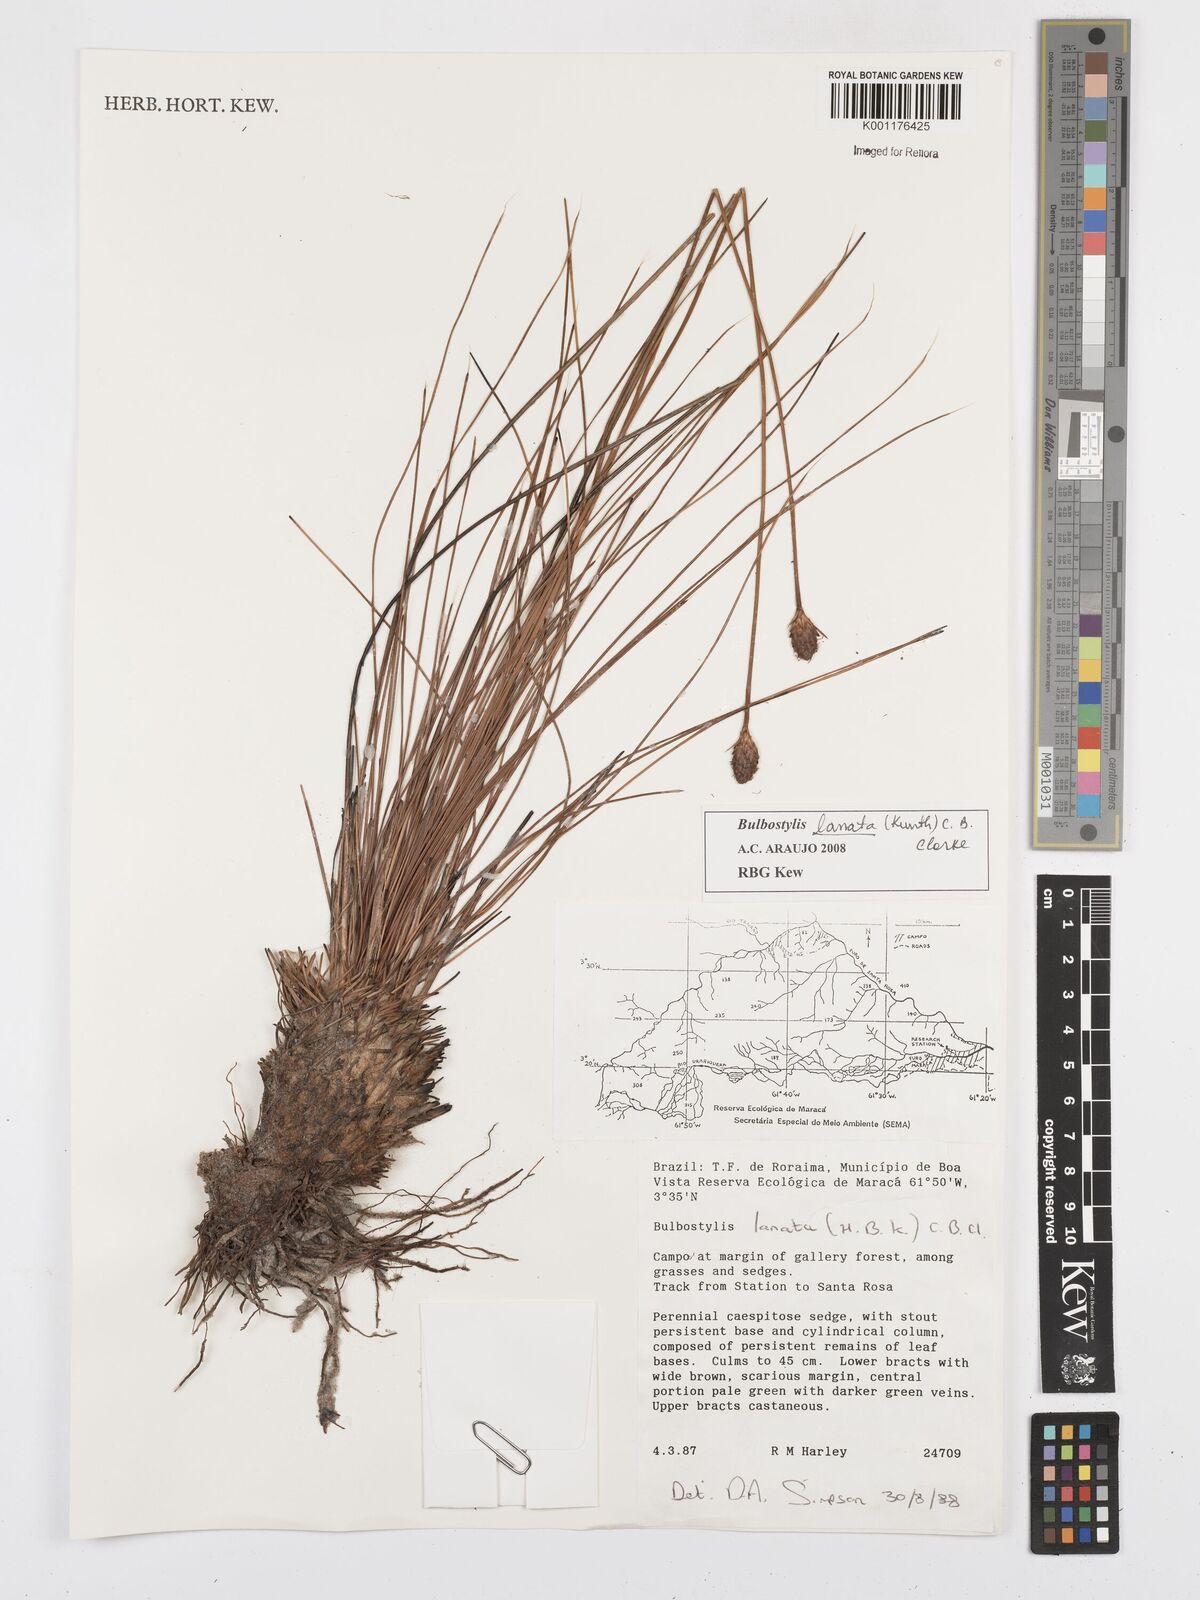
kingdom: Plantae
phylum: Tracheophyta
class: Liliopsida
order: Poales
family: Cyperaceae
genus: Bulbostylis
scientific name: Bulbostylis lanata
